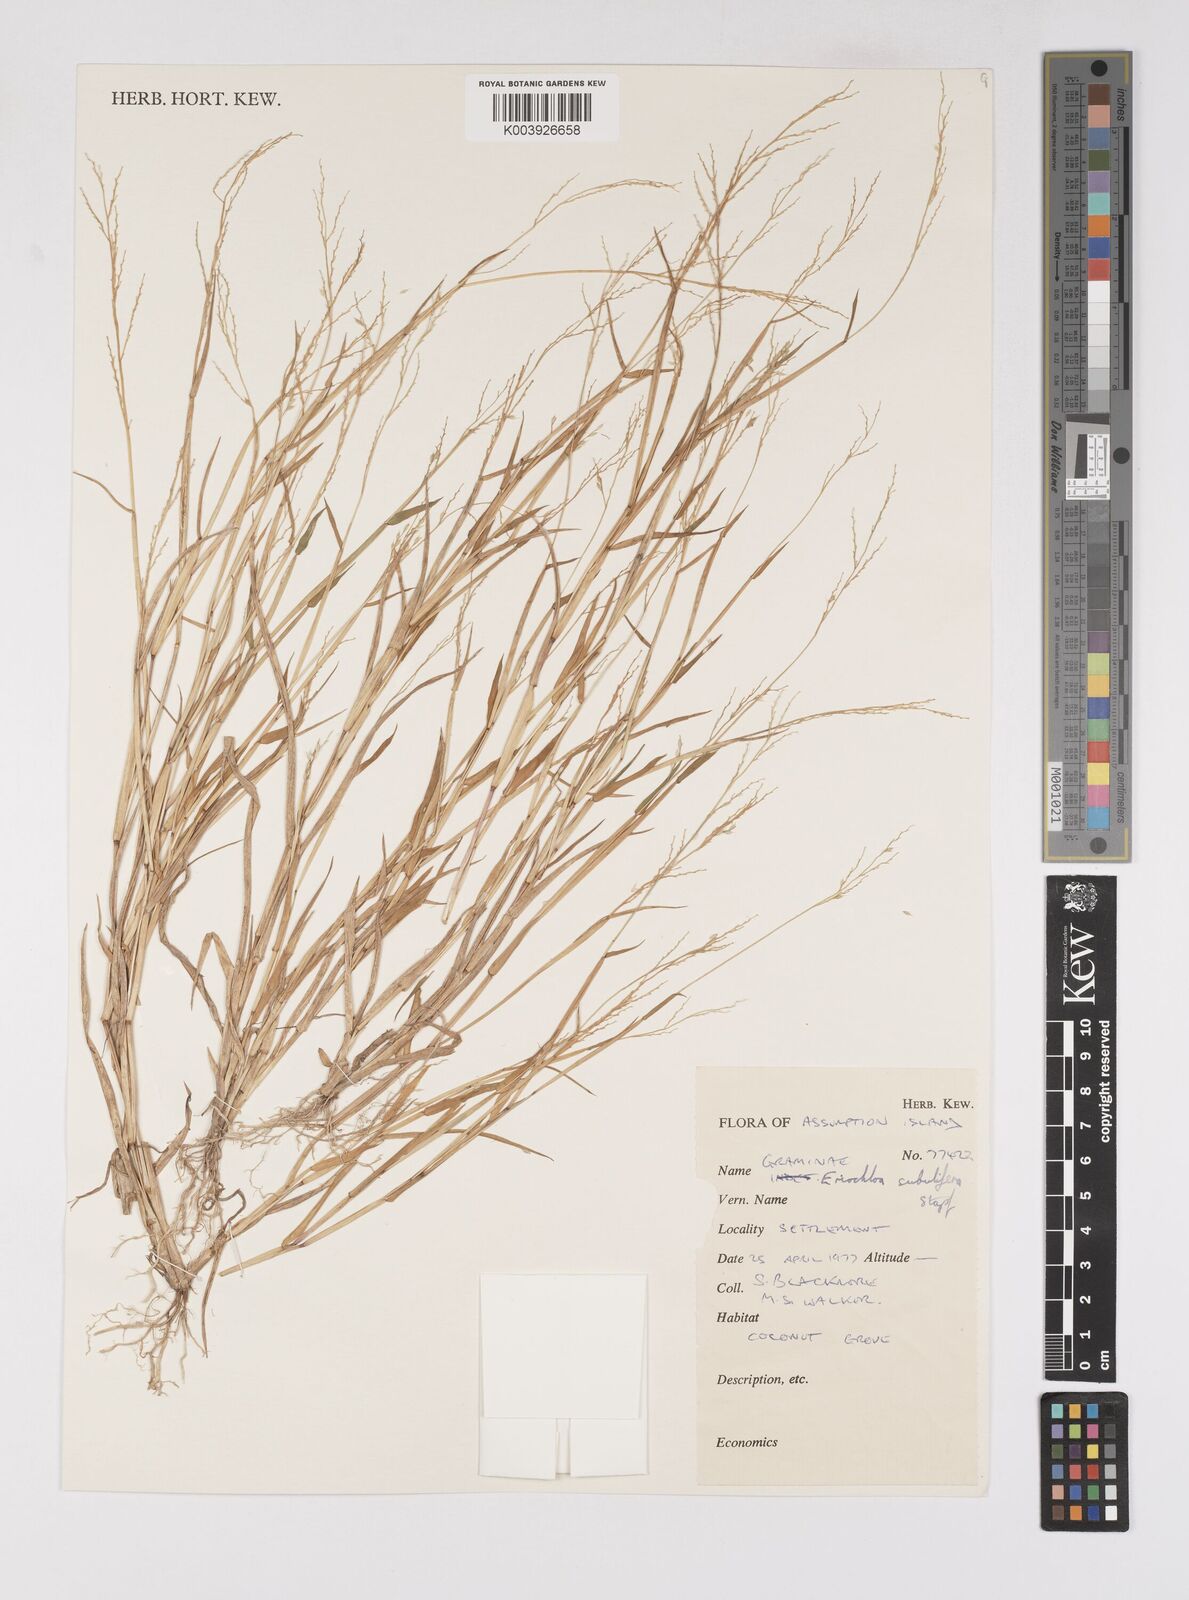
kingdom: Plantae
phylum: Tracheophyta
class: Liliopsida
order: Poales
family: Poaceae
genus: Eriochloa
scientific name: Eriochloa subulifera
